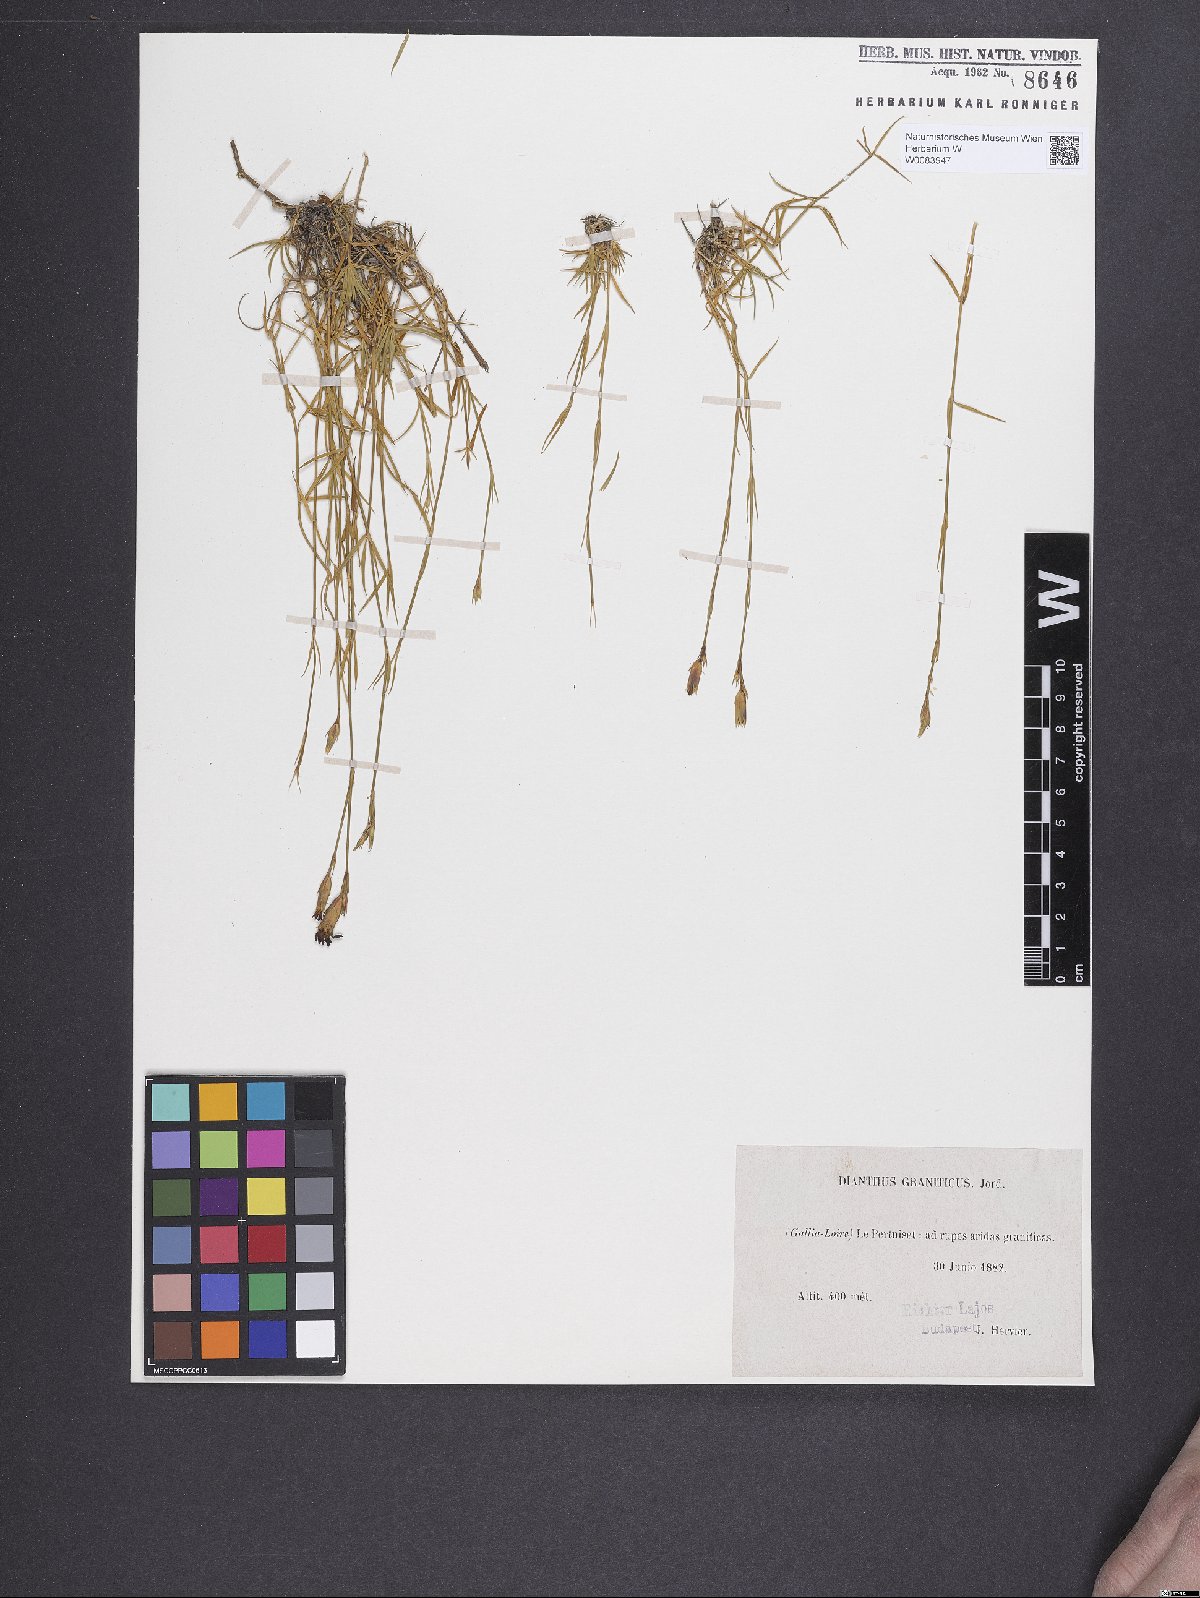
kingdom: Plantae
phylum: Tracheophyta
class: Magnoliopsida
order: Caryophyllales
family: Caryophyllaceae
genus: Dianthus
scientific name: Dianthus graniticus
